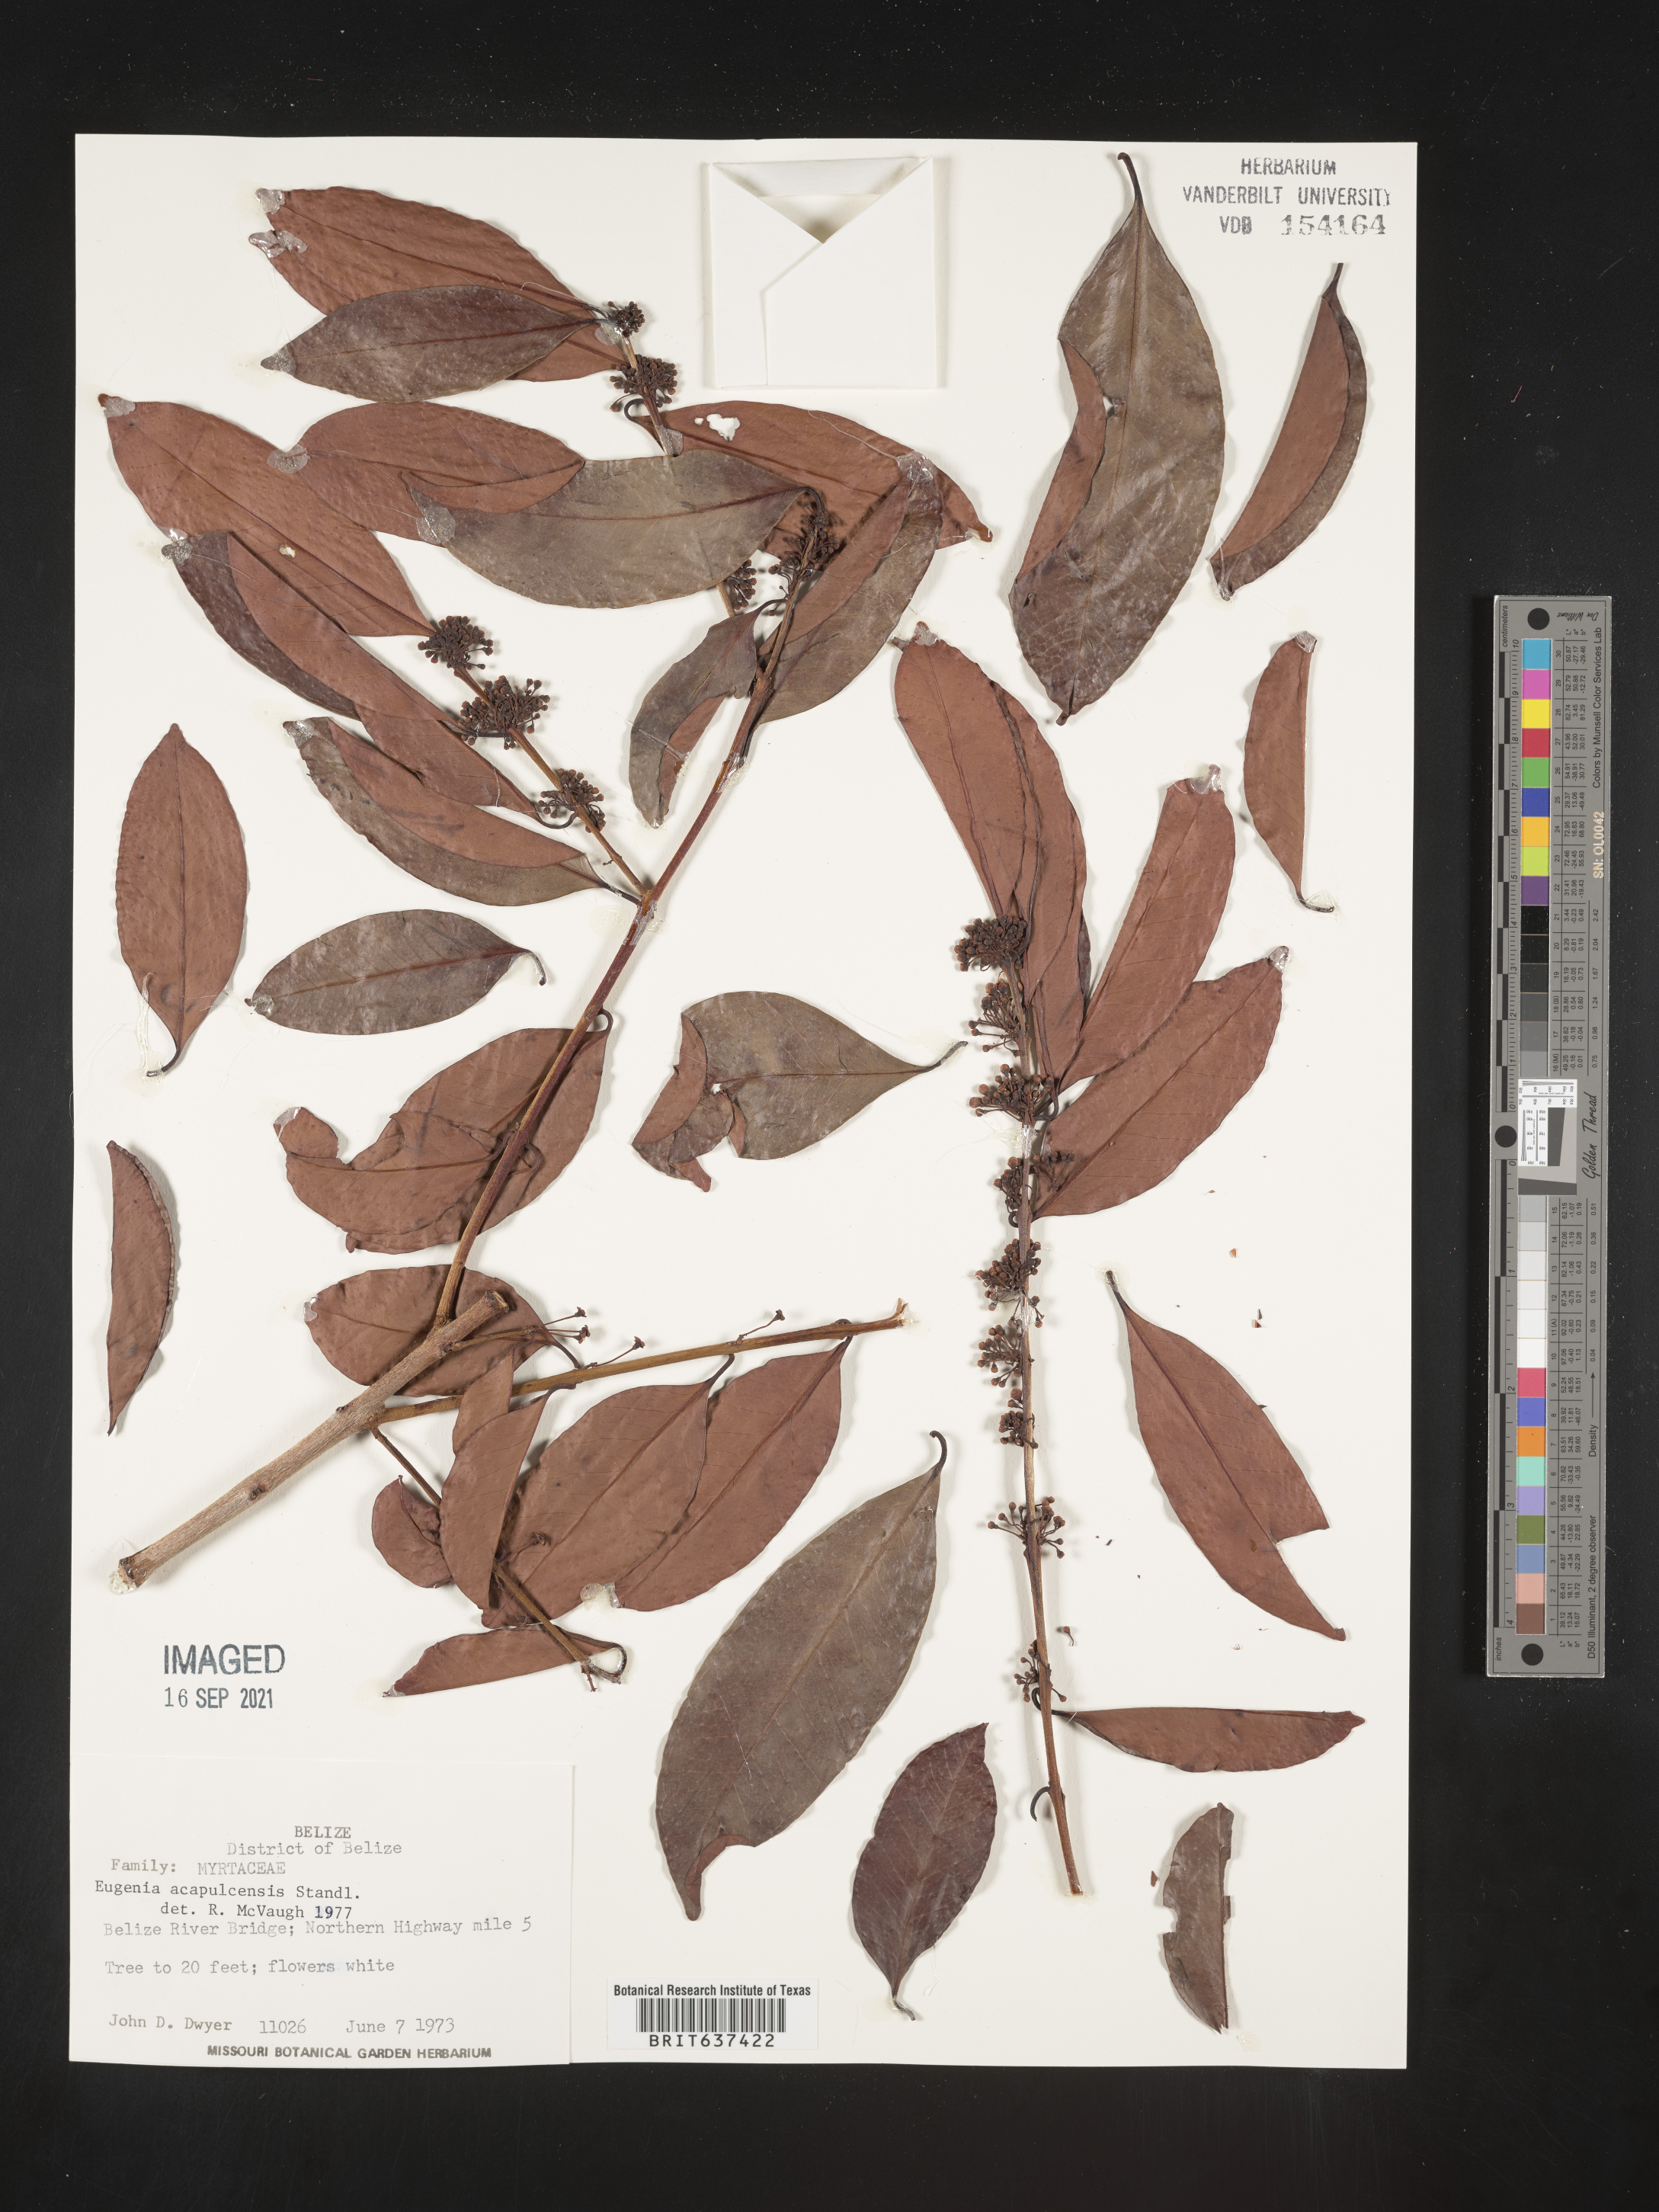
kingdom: Plantae
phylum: Tracheophyta
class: Magnoliopsida
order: Myrtales
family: Myrtaceae
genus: Eugenia
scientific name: Eugenia
